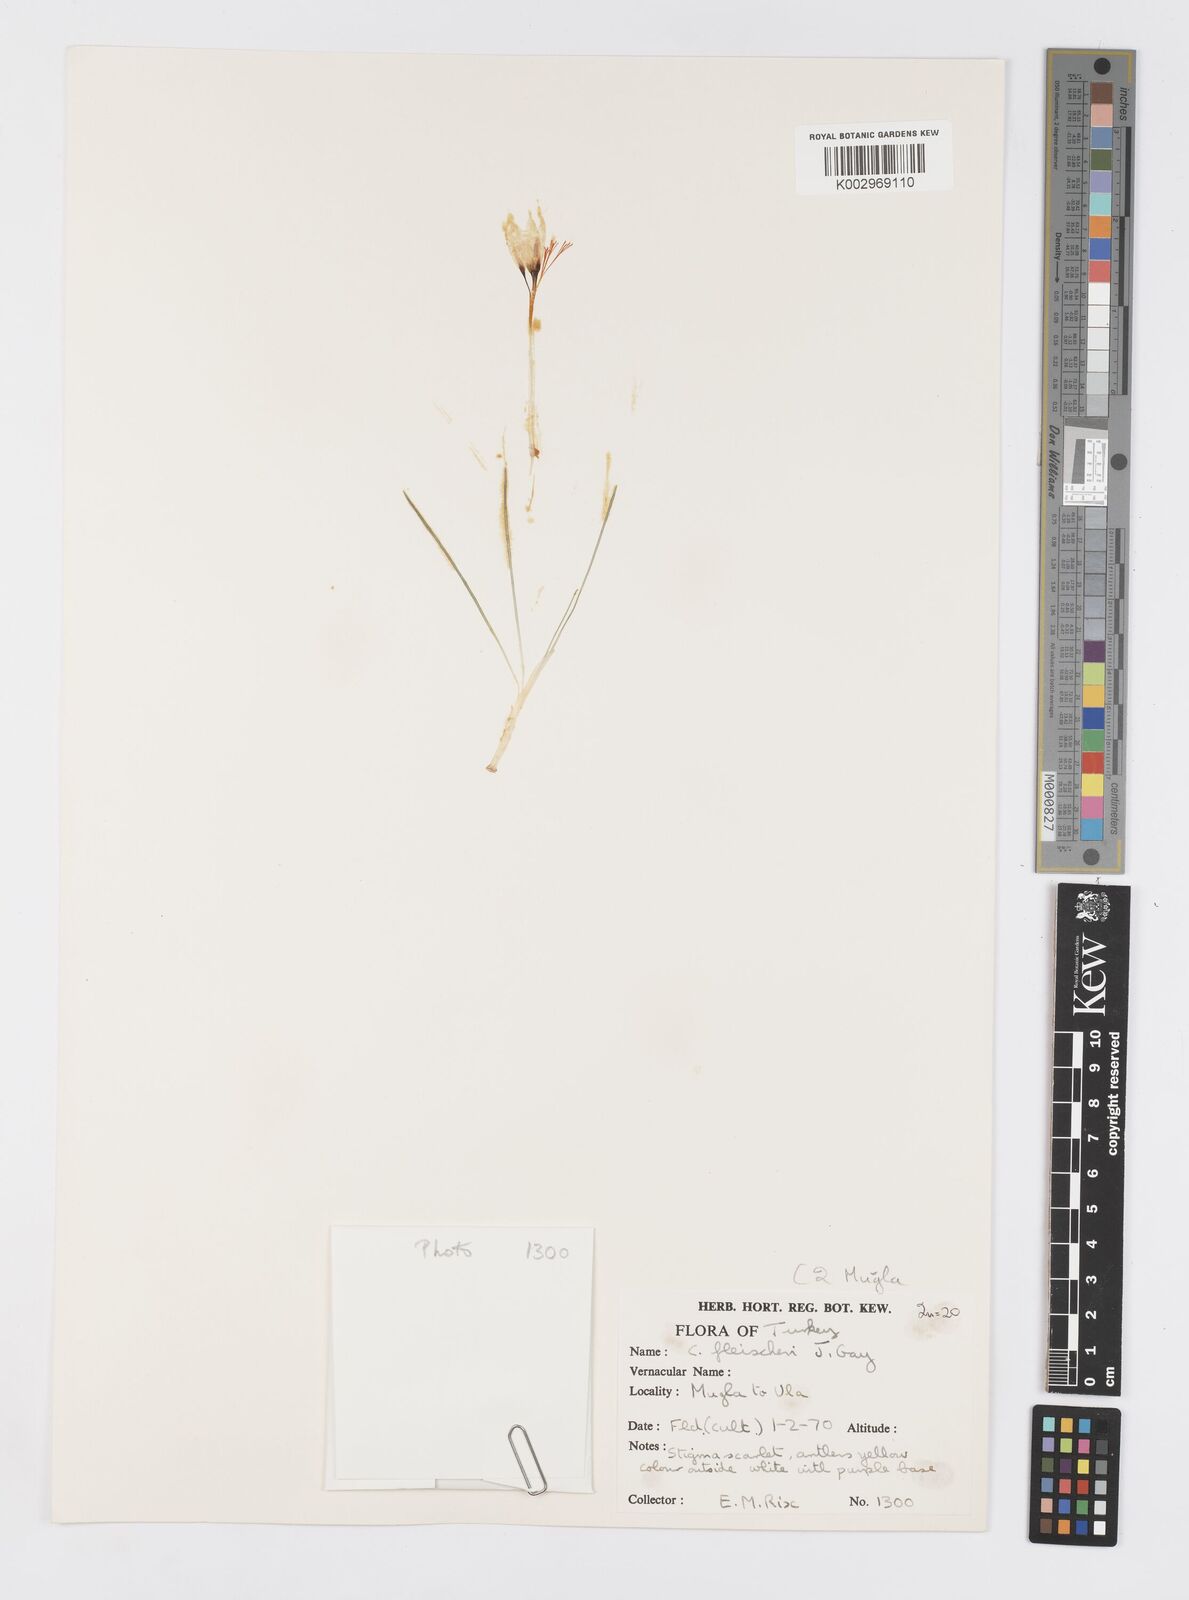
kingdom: Plantae
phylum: Tracheophyta
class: Liliopsida
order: Asparagales
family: Iridaceae
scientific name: Iridaceae
